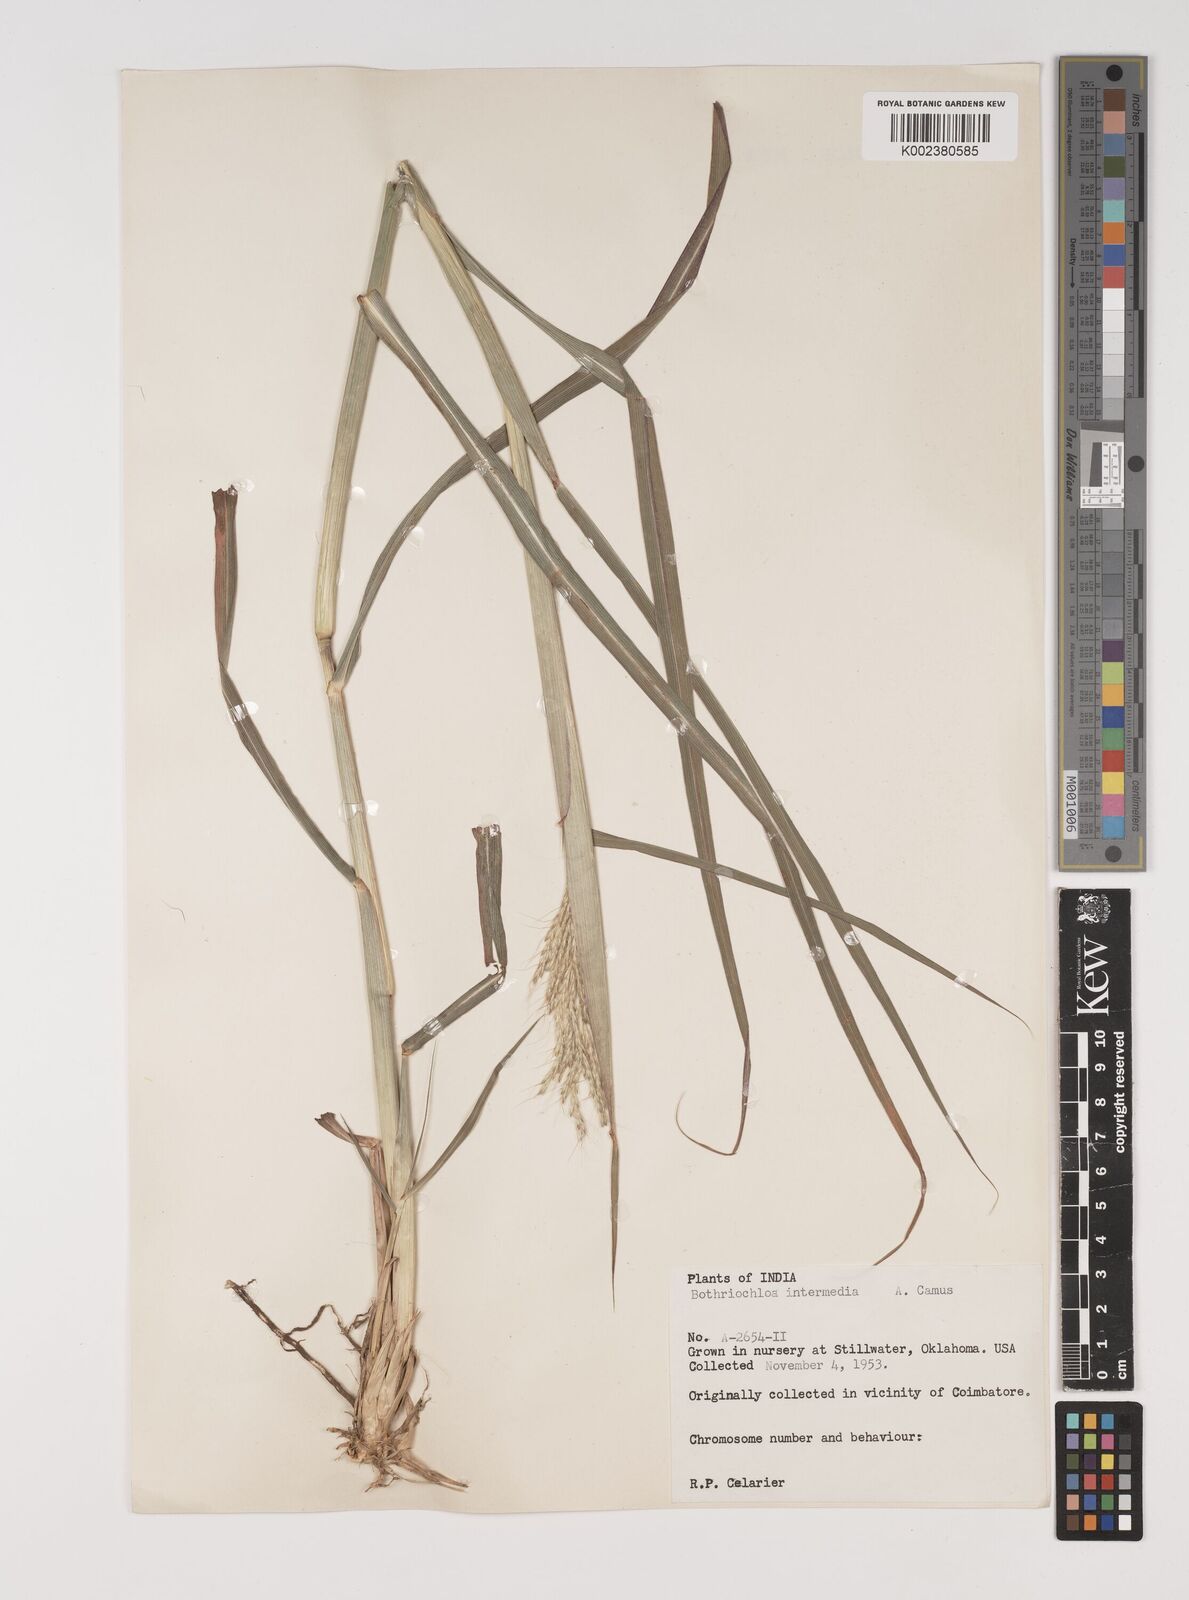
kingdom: Plantae
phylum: Tracheophyta
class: Liliopsida
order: Poales
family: Poaceae
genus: Bothriochloa
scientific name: Bothriochloa bladhii
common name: Caucasian bluestem
